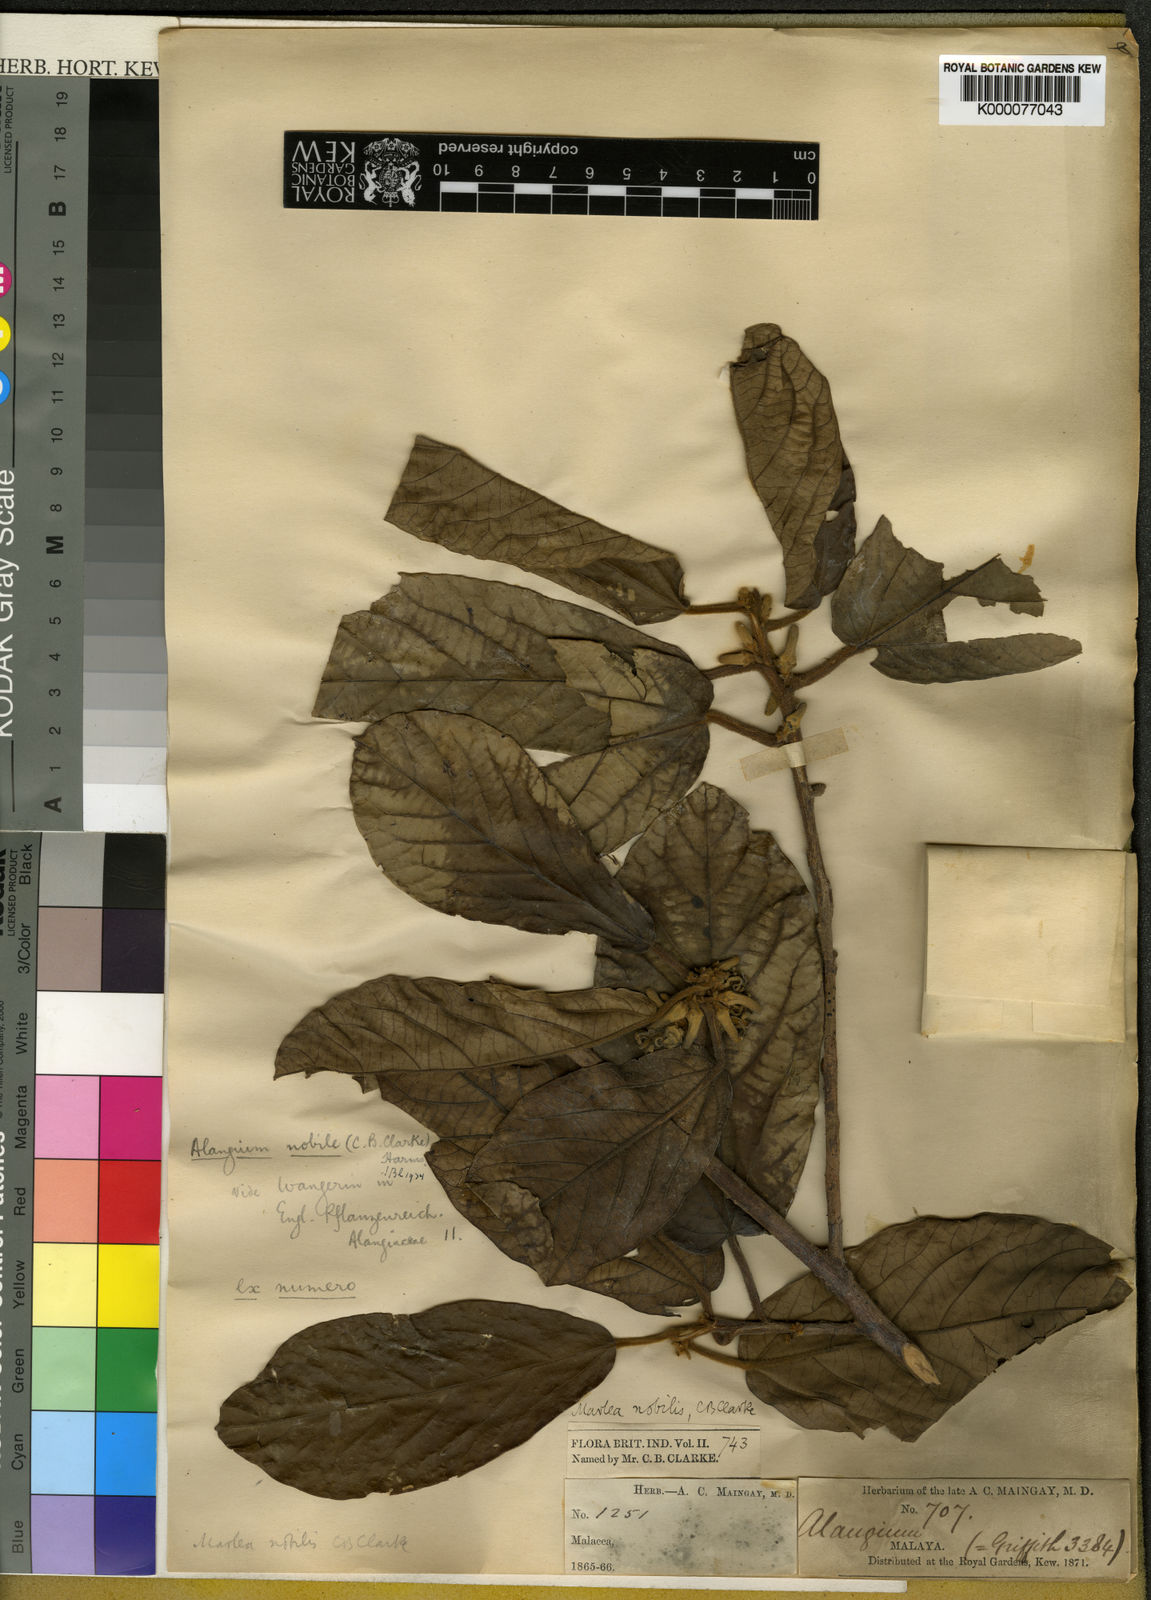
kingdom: Plantae
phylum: Tracheophyta
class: Magnoliopsida
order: Cornales
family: Cornaceae
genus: Alangium
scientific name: Alangium nobile
